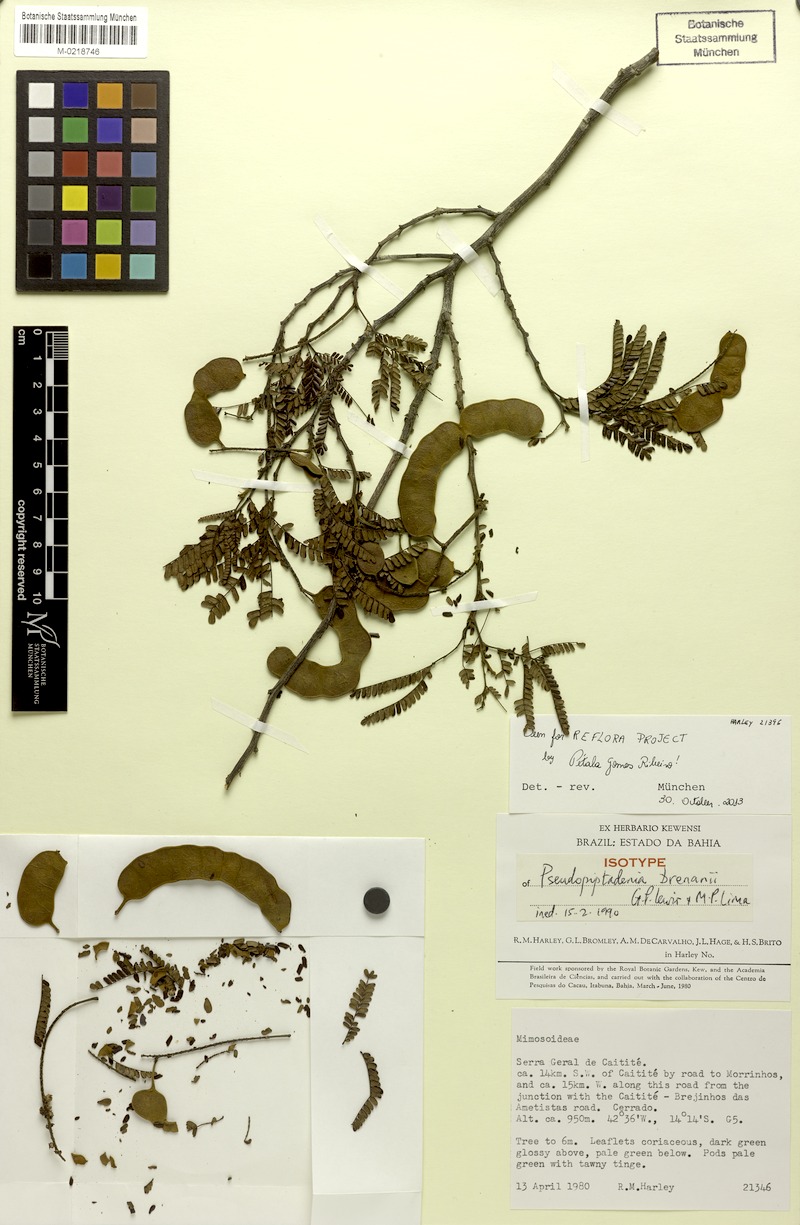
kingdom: Plantae
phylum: Tracheophyta
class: Magnoliopsida
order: Fabales
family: Fabaceae
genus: Pseudopiptadenia
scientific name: Pseudopiptadenia brenanii
